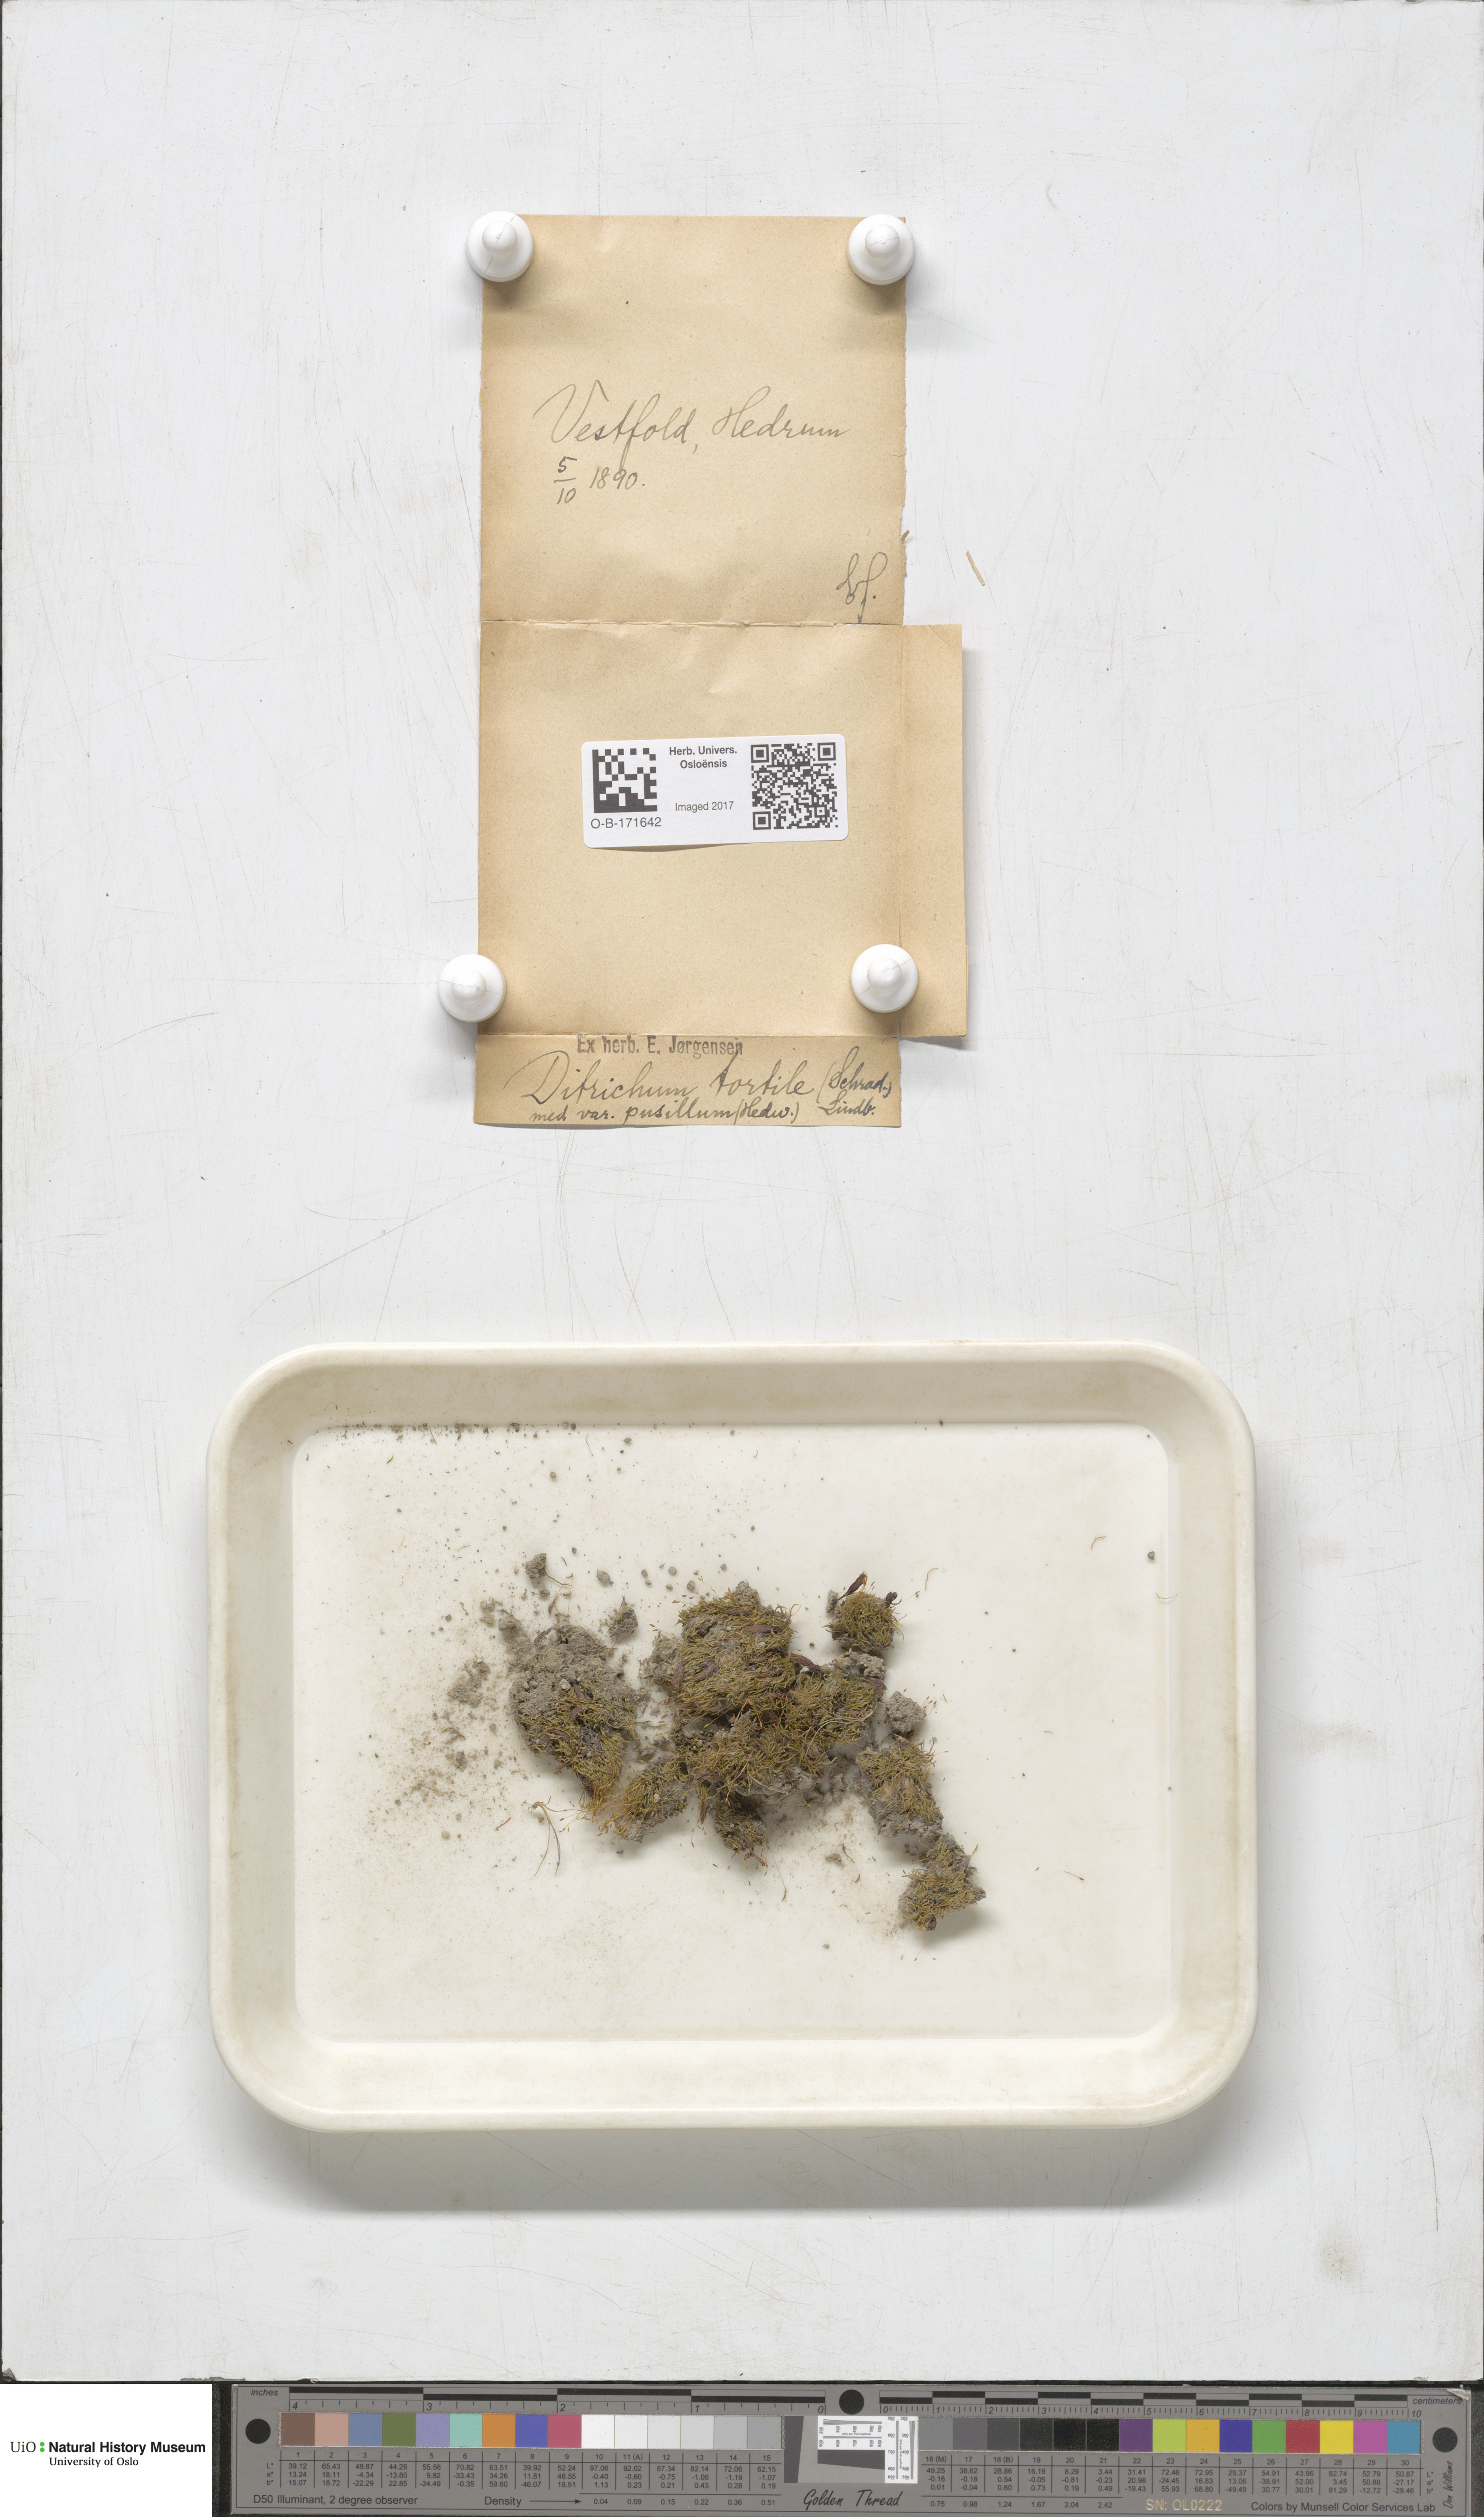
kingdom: Plantae
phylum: Bryophyta
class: Bryopsida
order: Dicranales
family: Ditrichaceae
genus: Ditrichum
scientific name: Ditrichum pusillum
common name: Brown cow-hair moss
